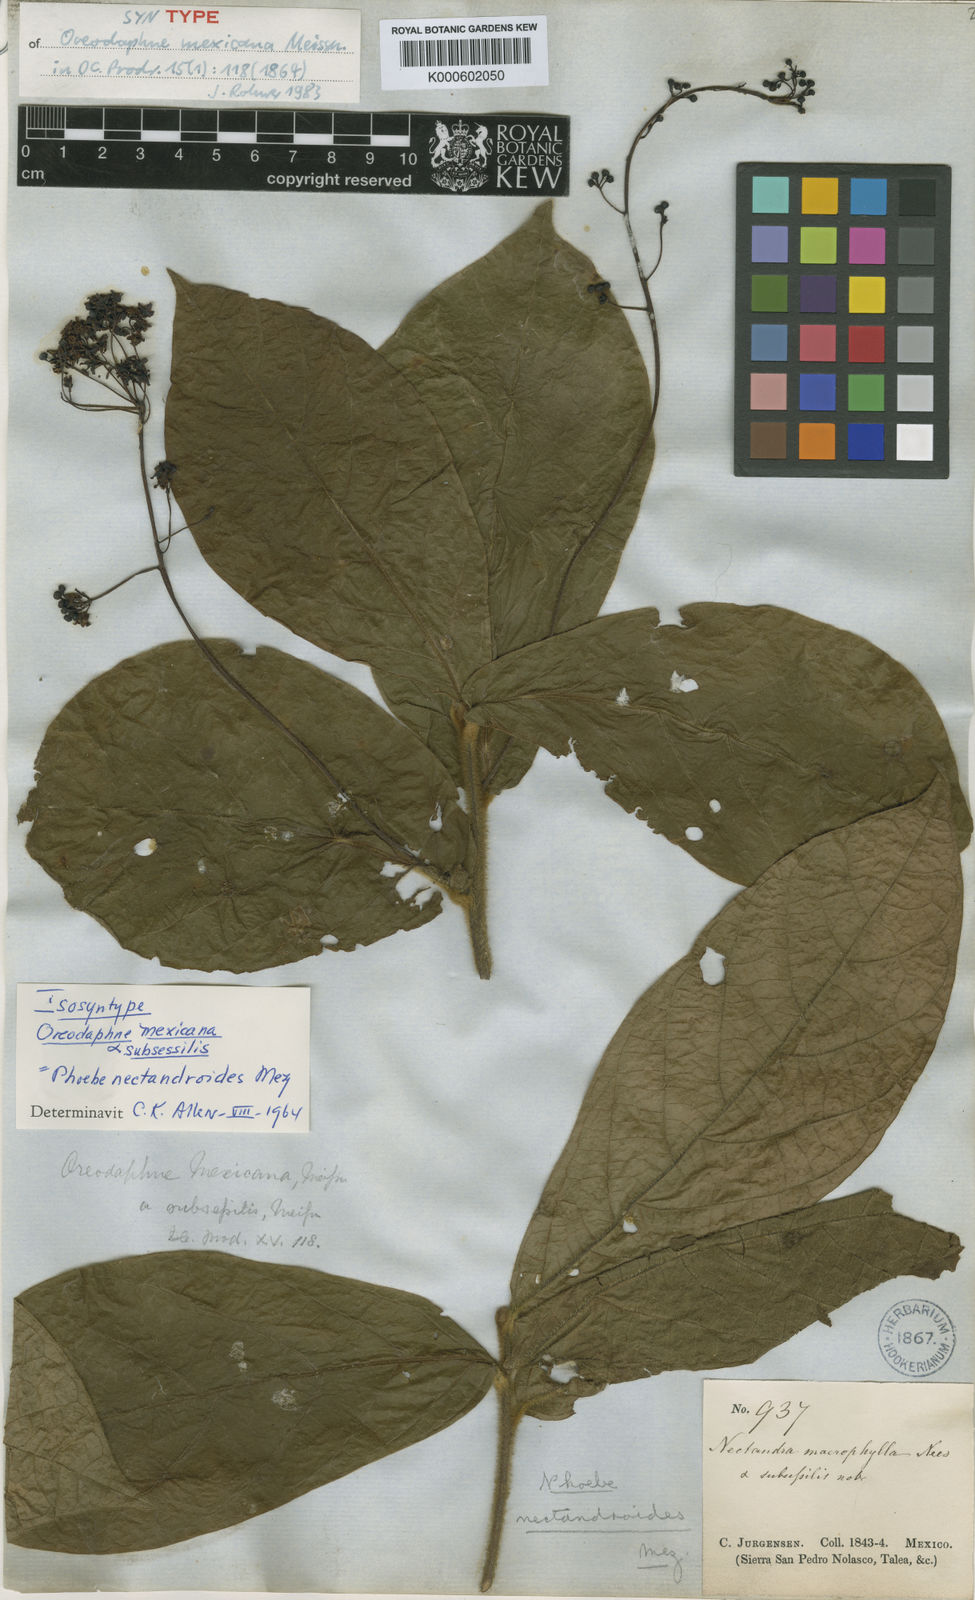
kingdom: Plantae
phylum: Tracheophyta
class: Magnoliopsida
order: Laurales
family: Lauraceae
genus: Ocotea
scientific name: Ocotea macrophylla
